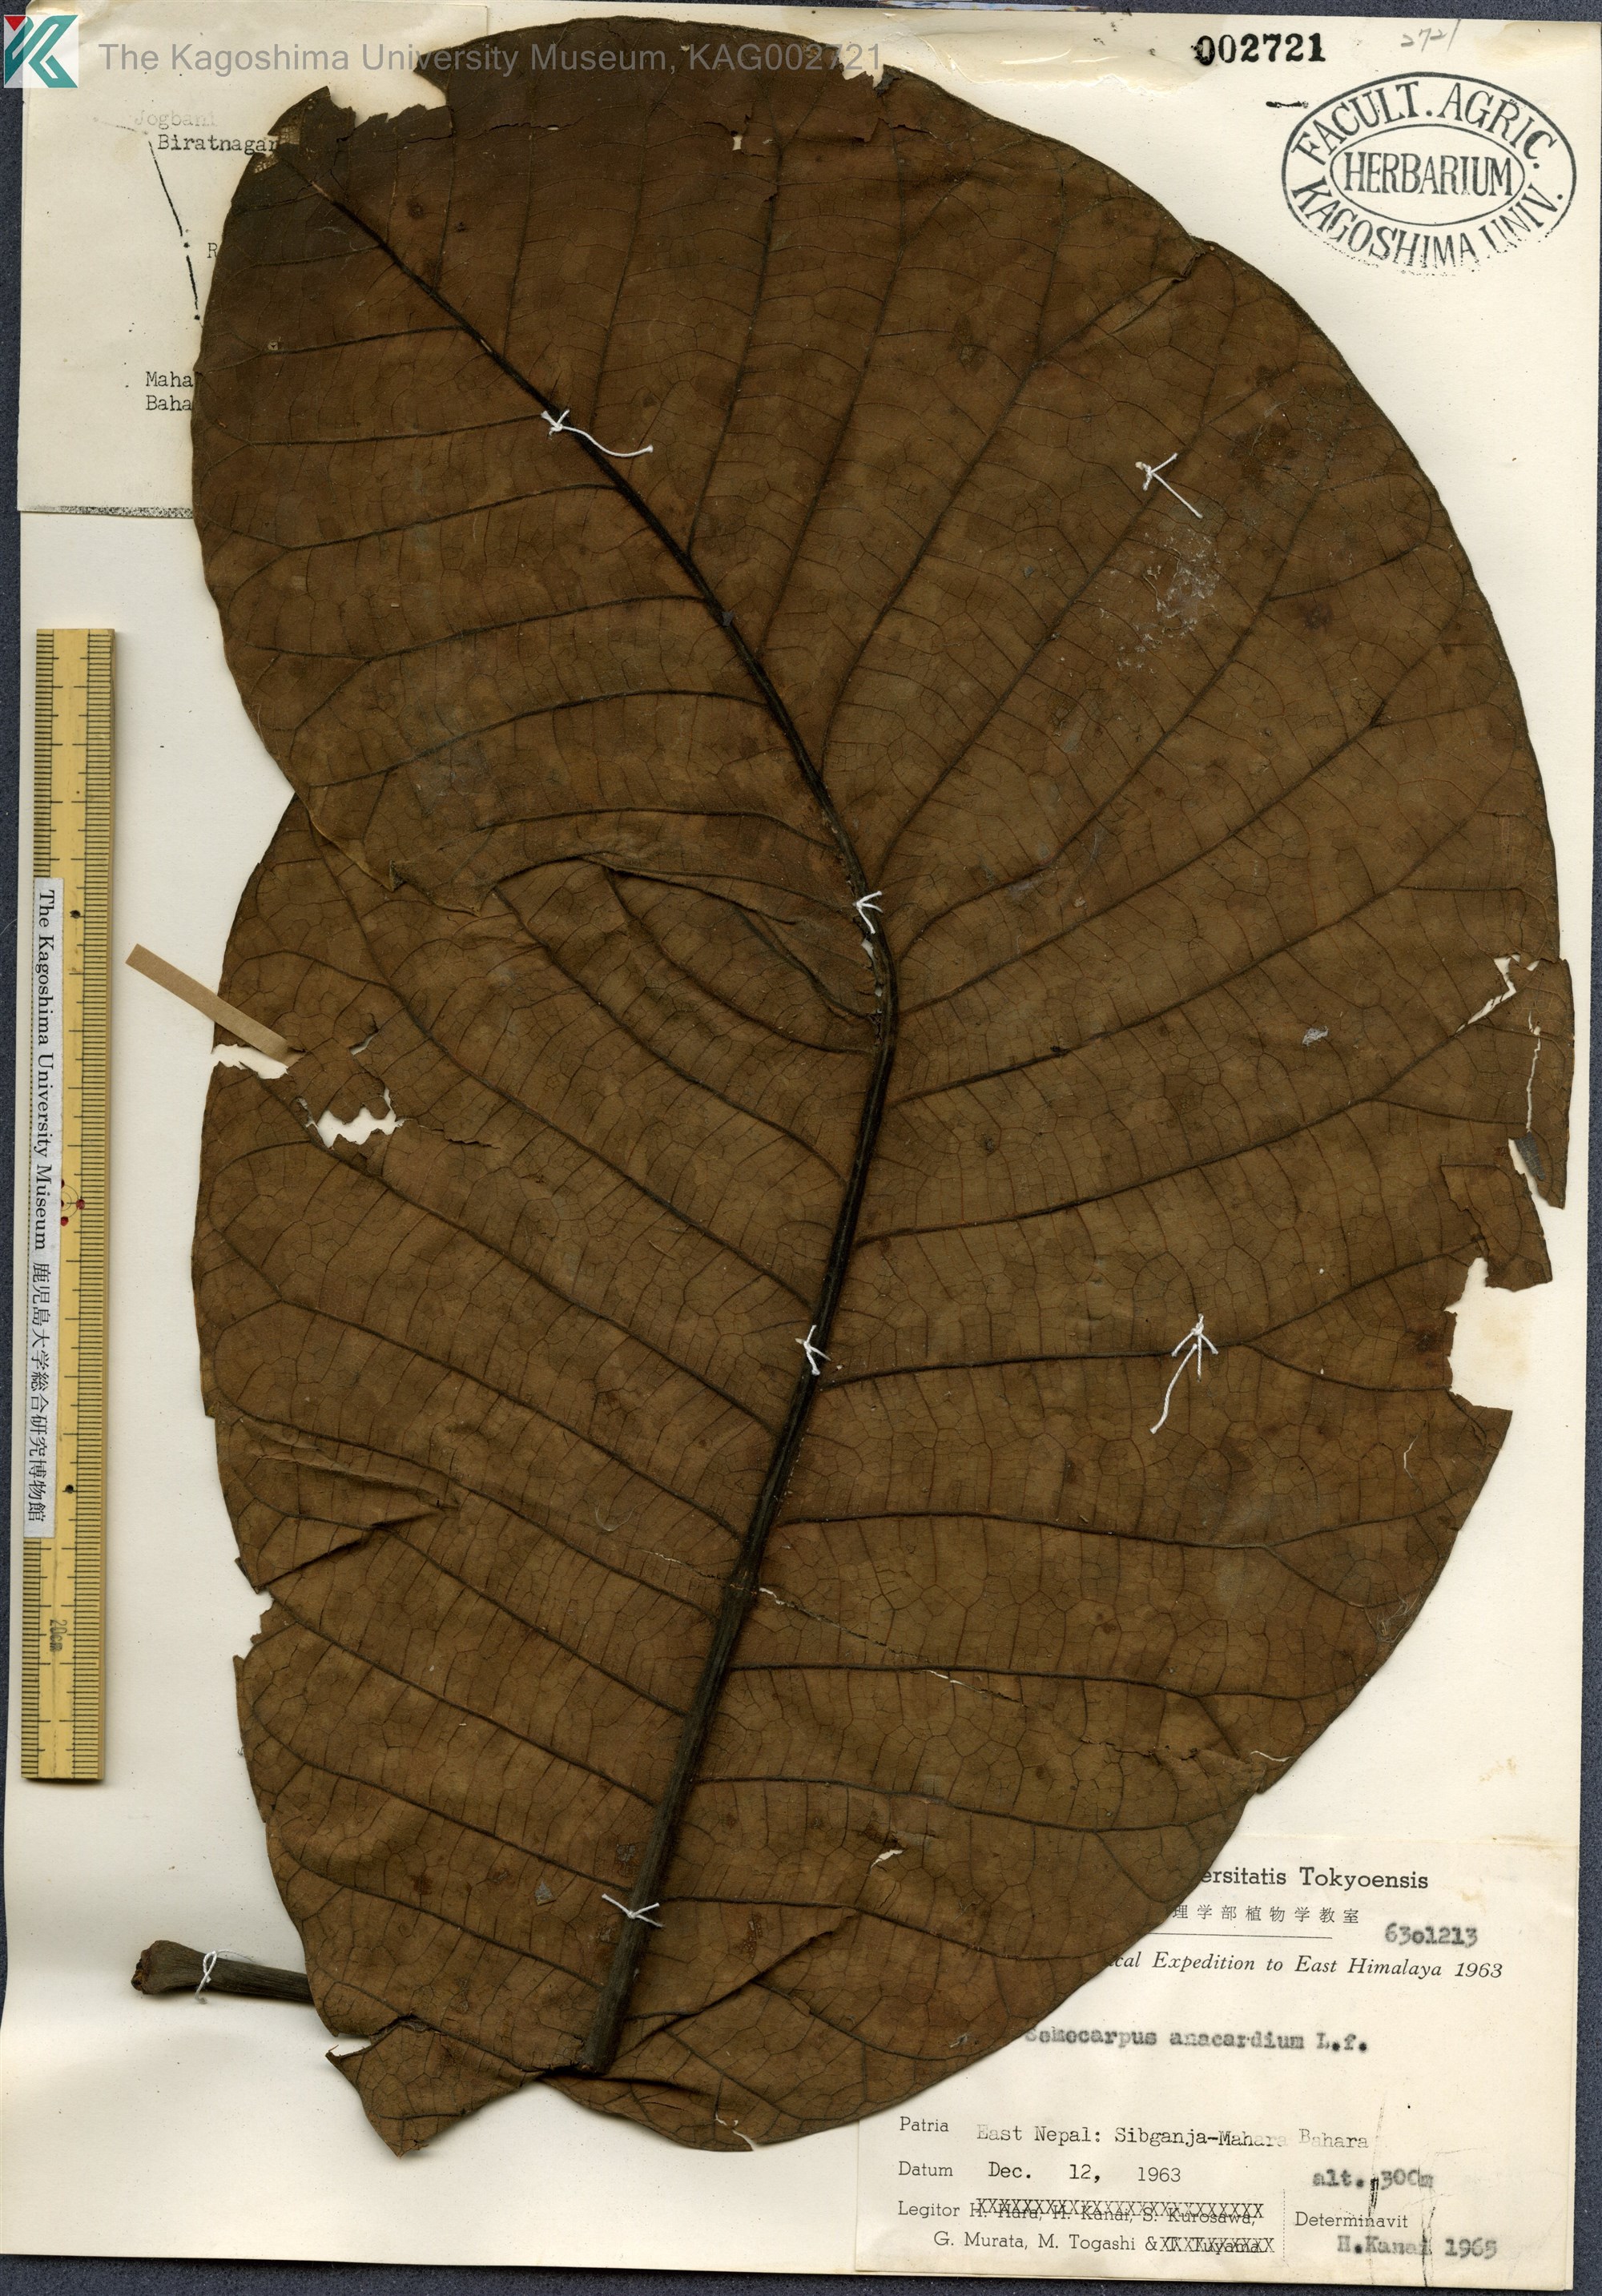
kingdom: Plantae
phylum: Tracheophyta
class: Magnoliopsida
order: Sapindales
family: Anacardiaceae
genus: Semecarpus
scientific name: Semecarpus anacardium
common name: Marking nut-tree
